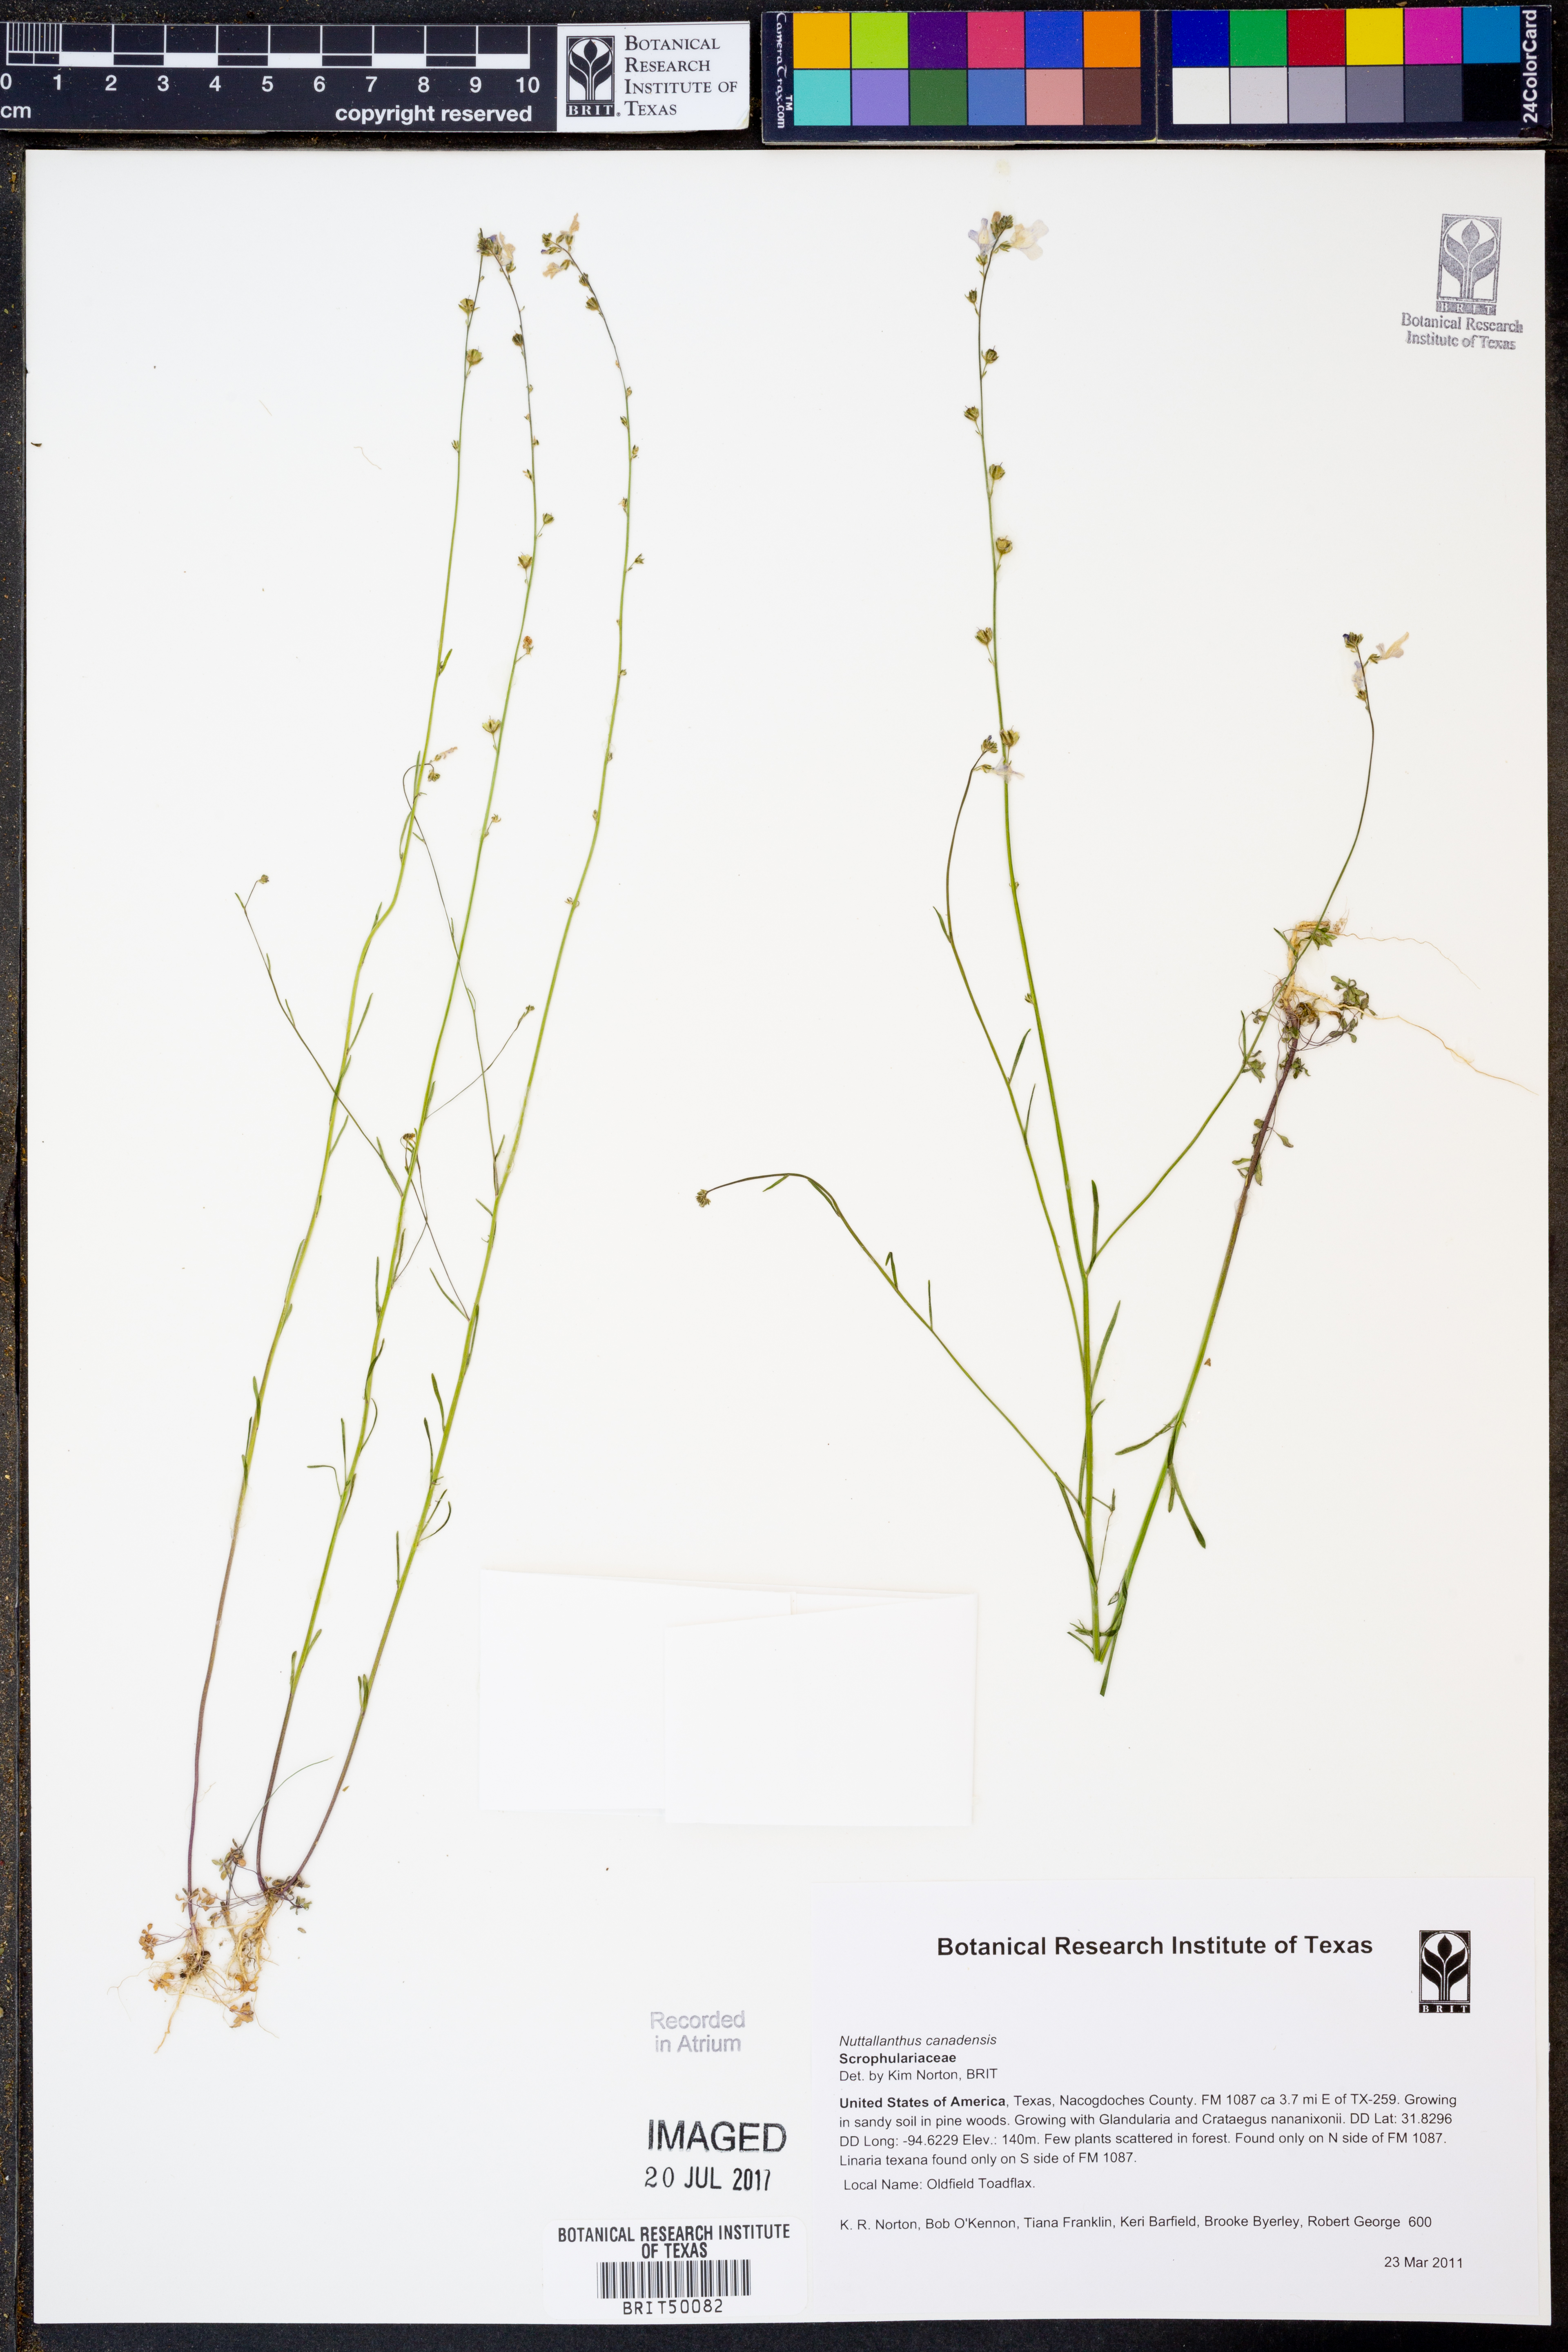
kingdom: Plantae
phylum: Tracheophyta
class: Magnoliopsida
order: Lamiales
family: Plantaginaceae
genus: Nuttallanthus
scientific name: Nuttallanthus canadensis
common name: Blue toadflax
